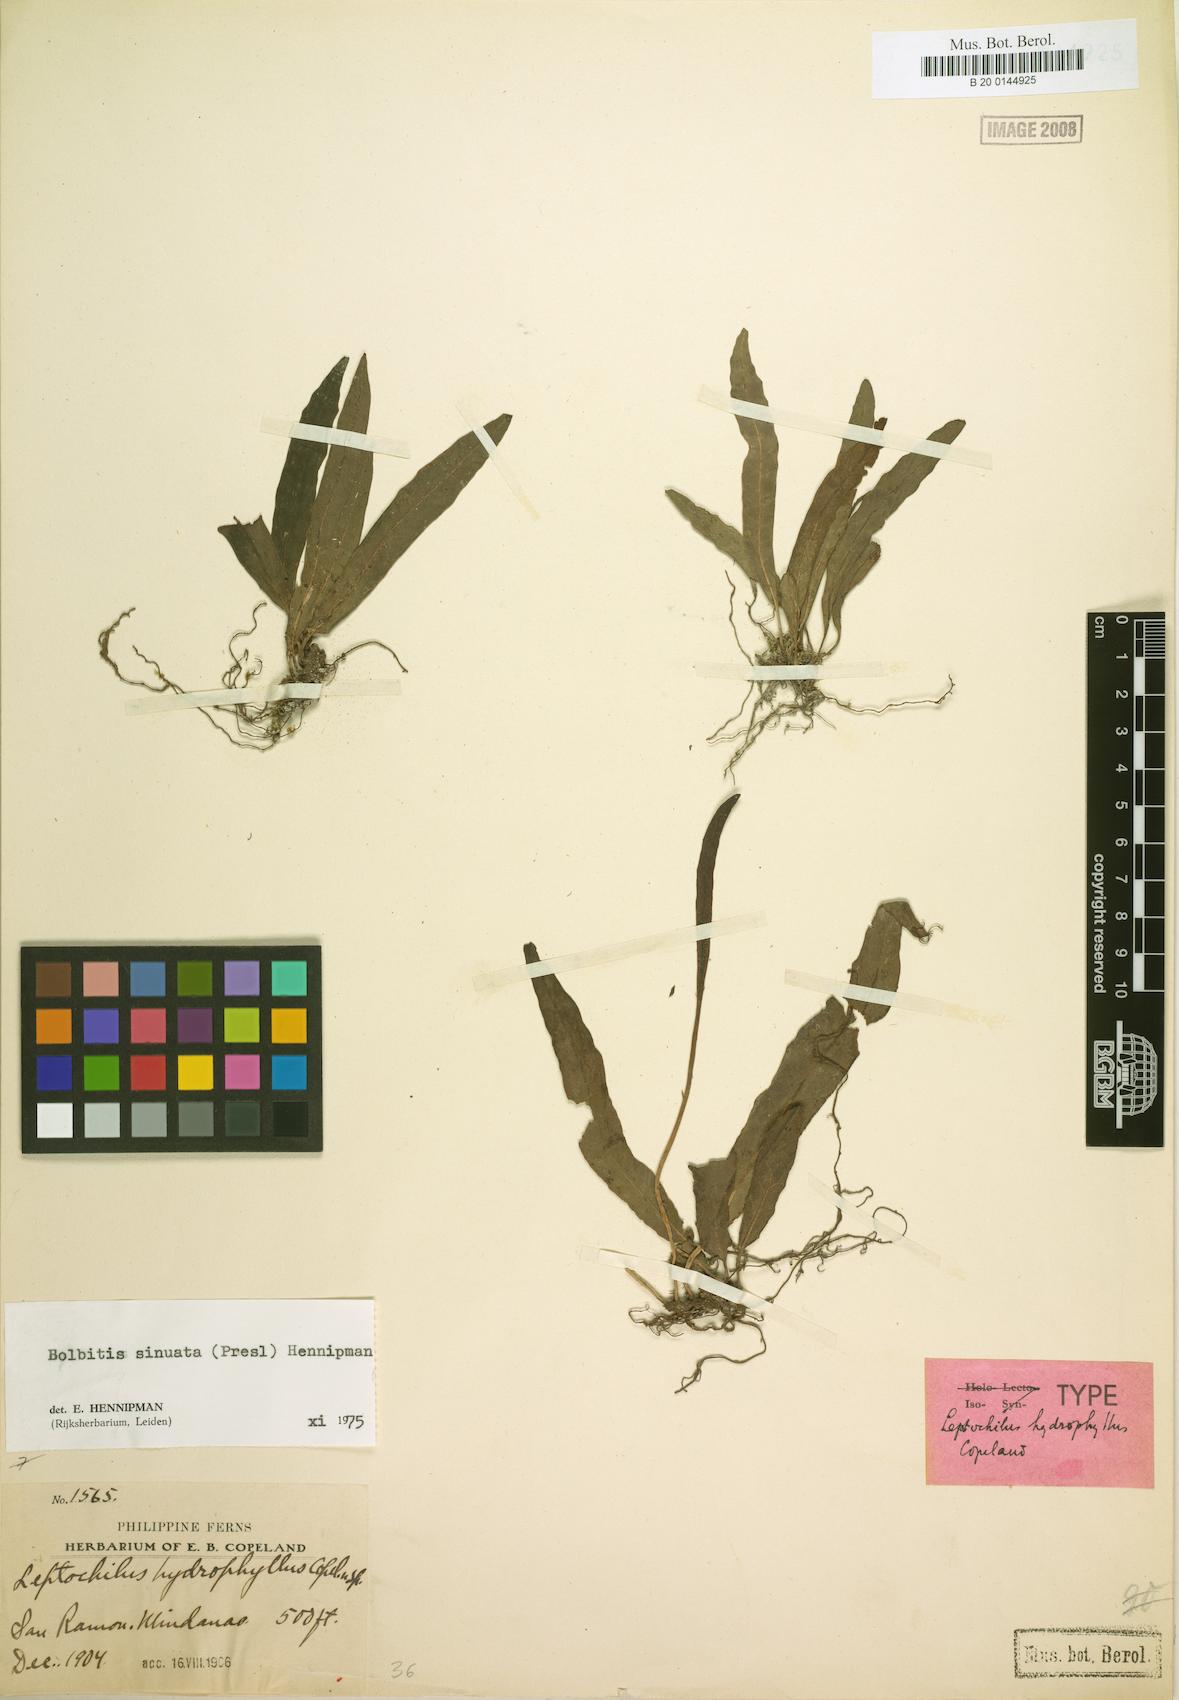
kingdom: Plantae
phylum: Tracheophyta
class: Polypodiopsida
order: Polypodiales
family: Dryopteridaceae
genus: Bolbitis
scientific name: Bolbitis sinuata
